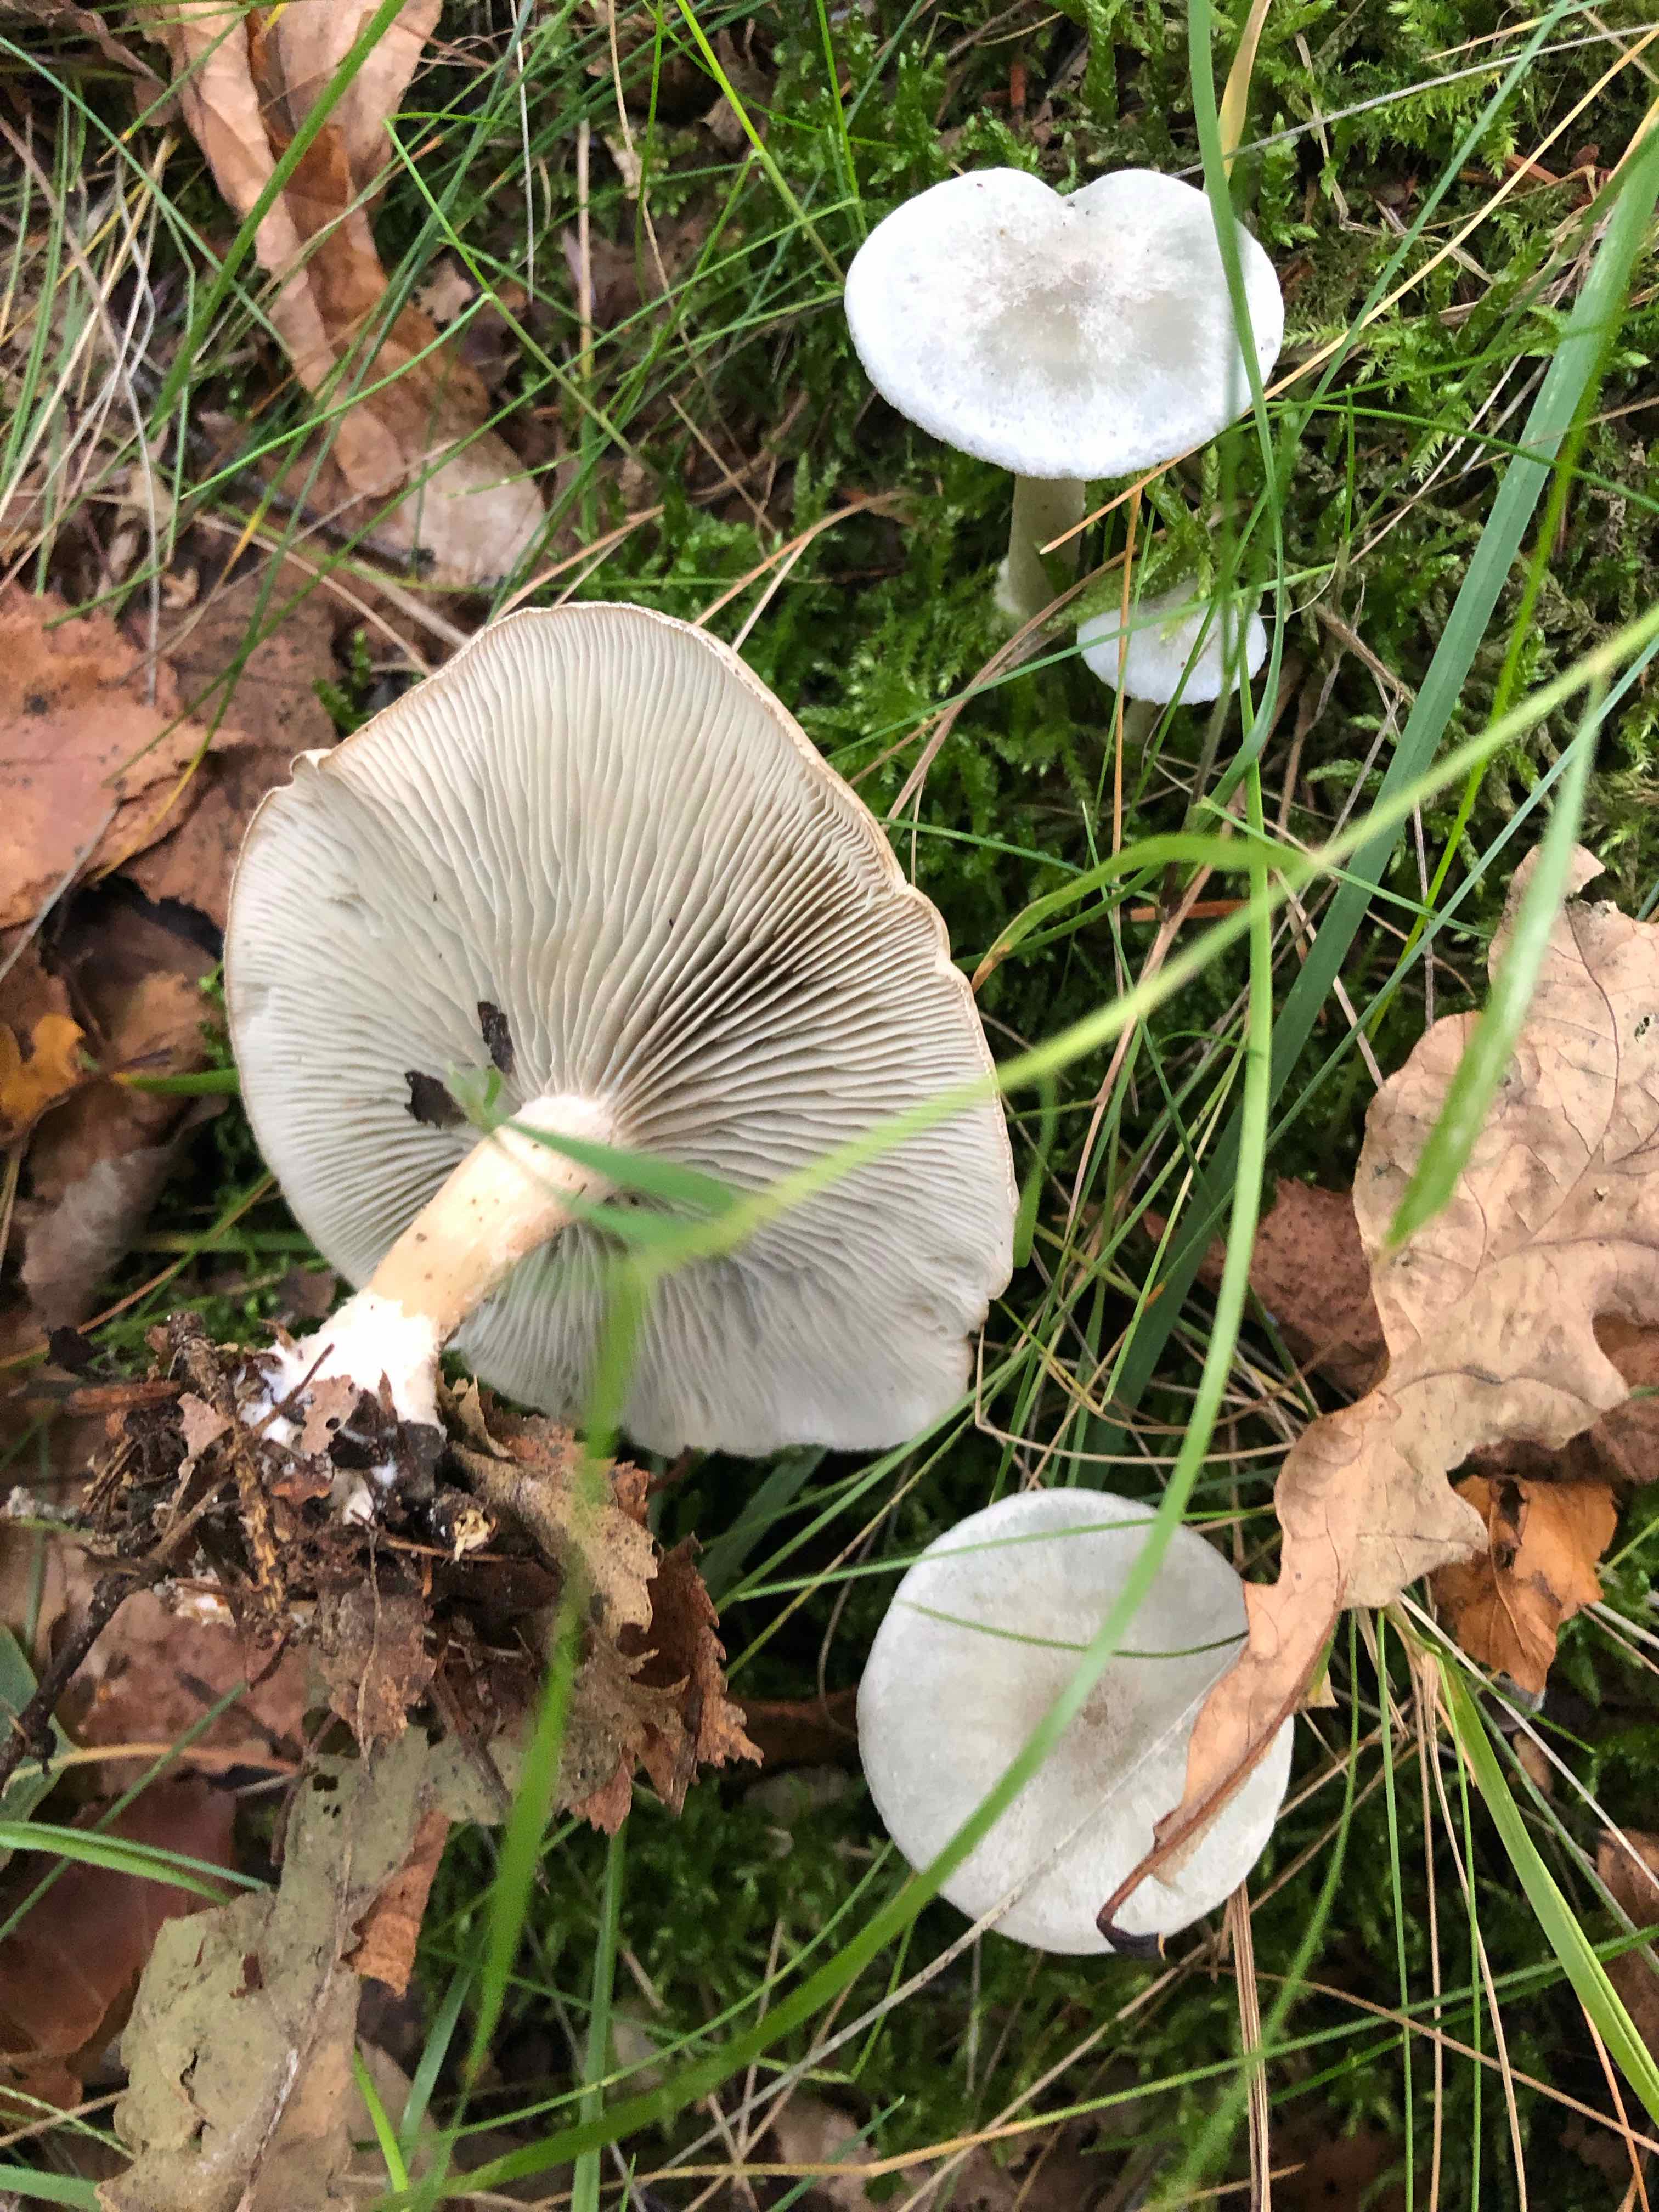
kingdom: Fungi
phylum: Basidiomycota
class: Agaricomycetes
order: Agaricales
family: Tricholomataceae
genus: Clitocybe
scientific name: Clitocybe odora
